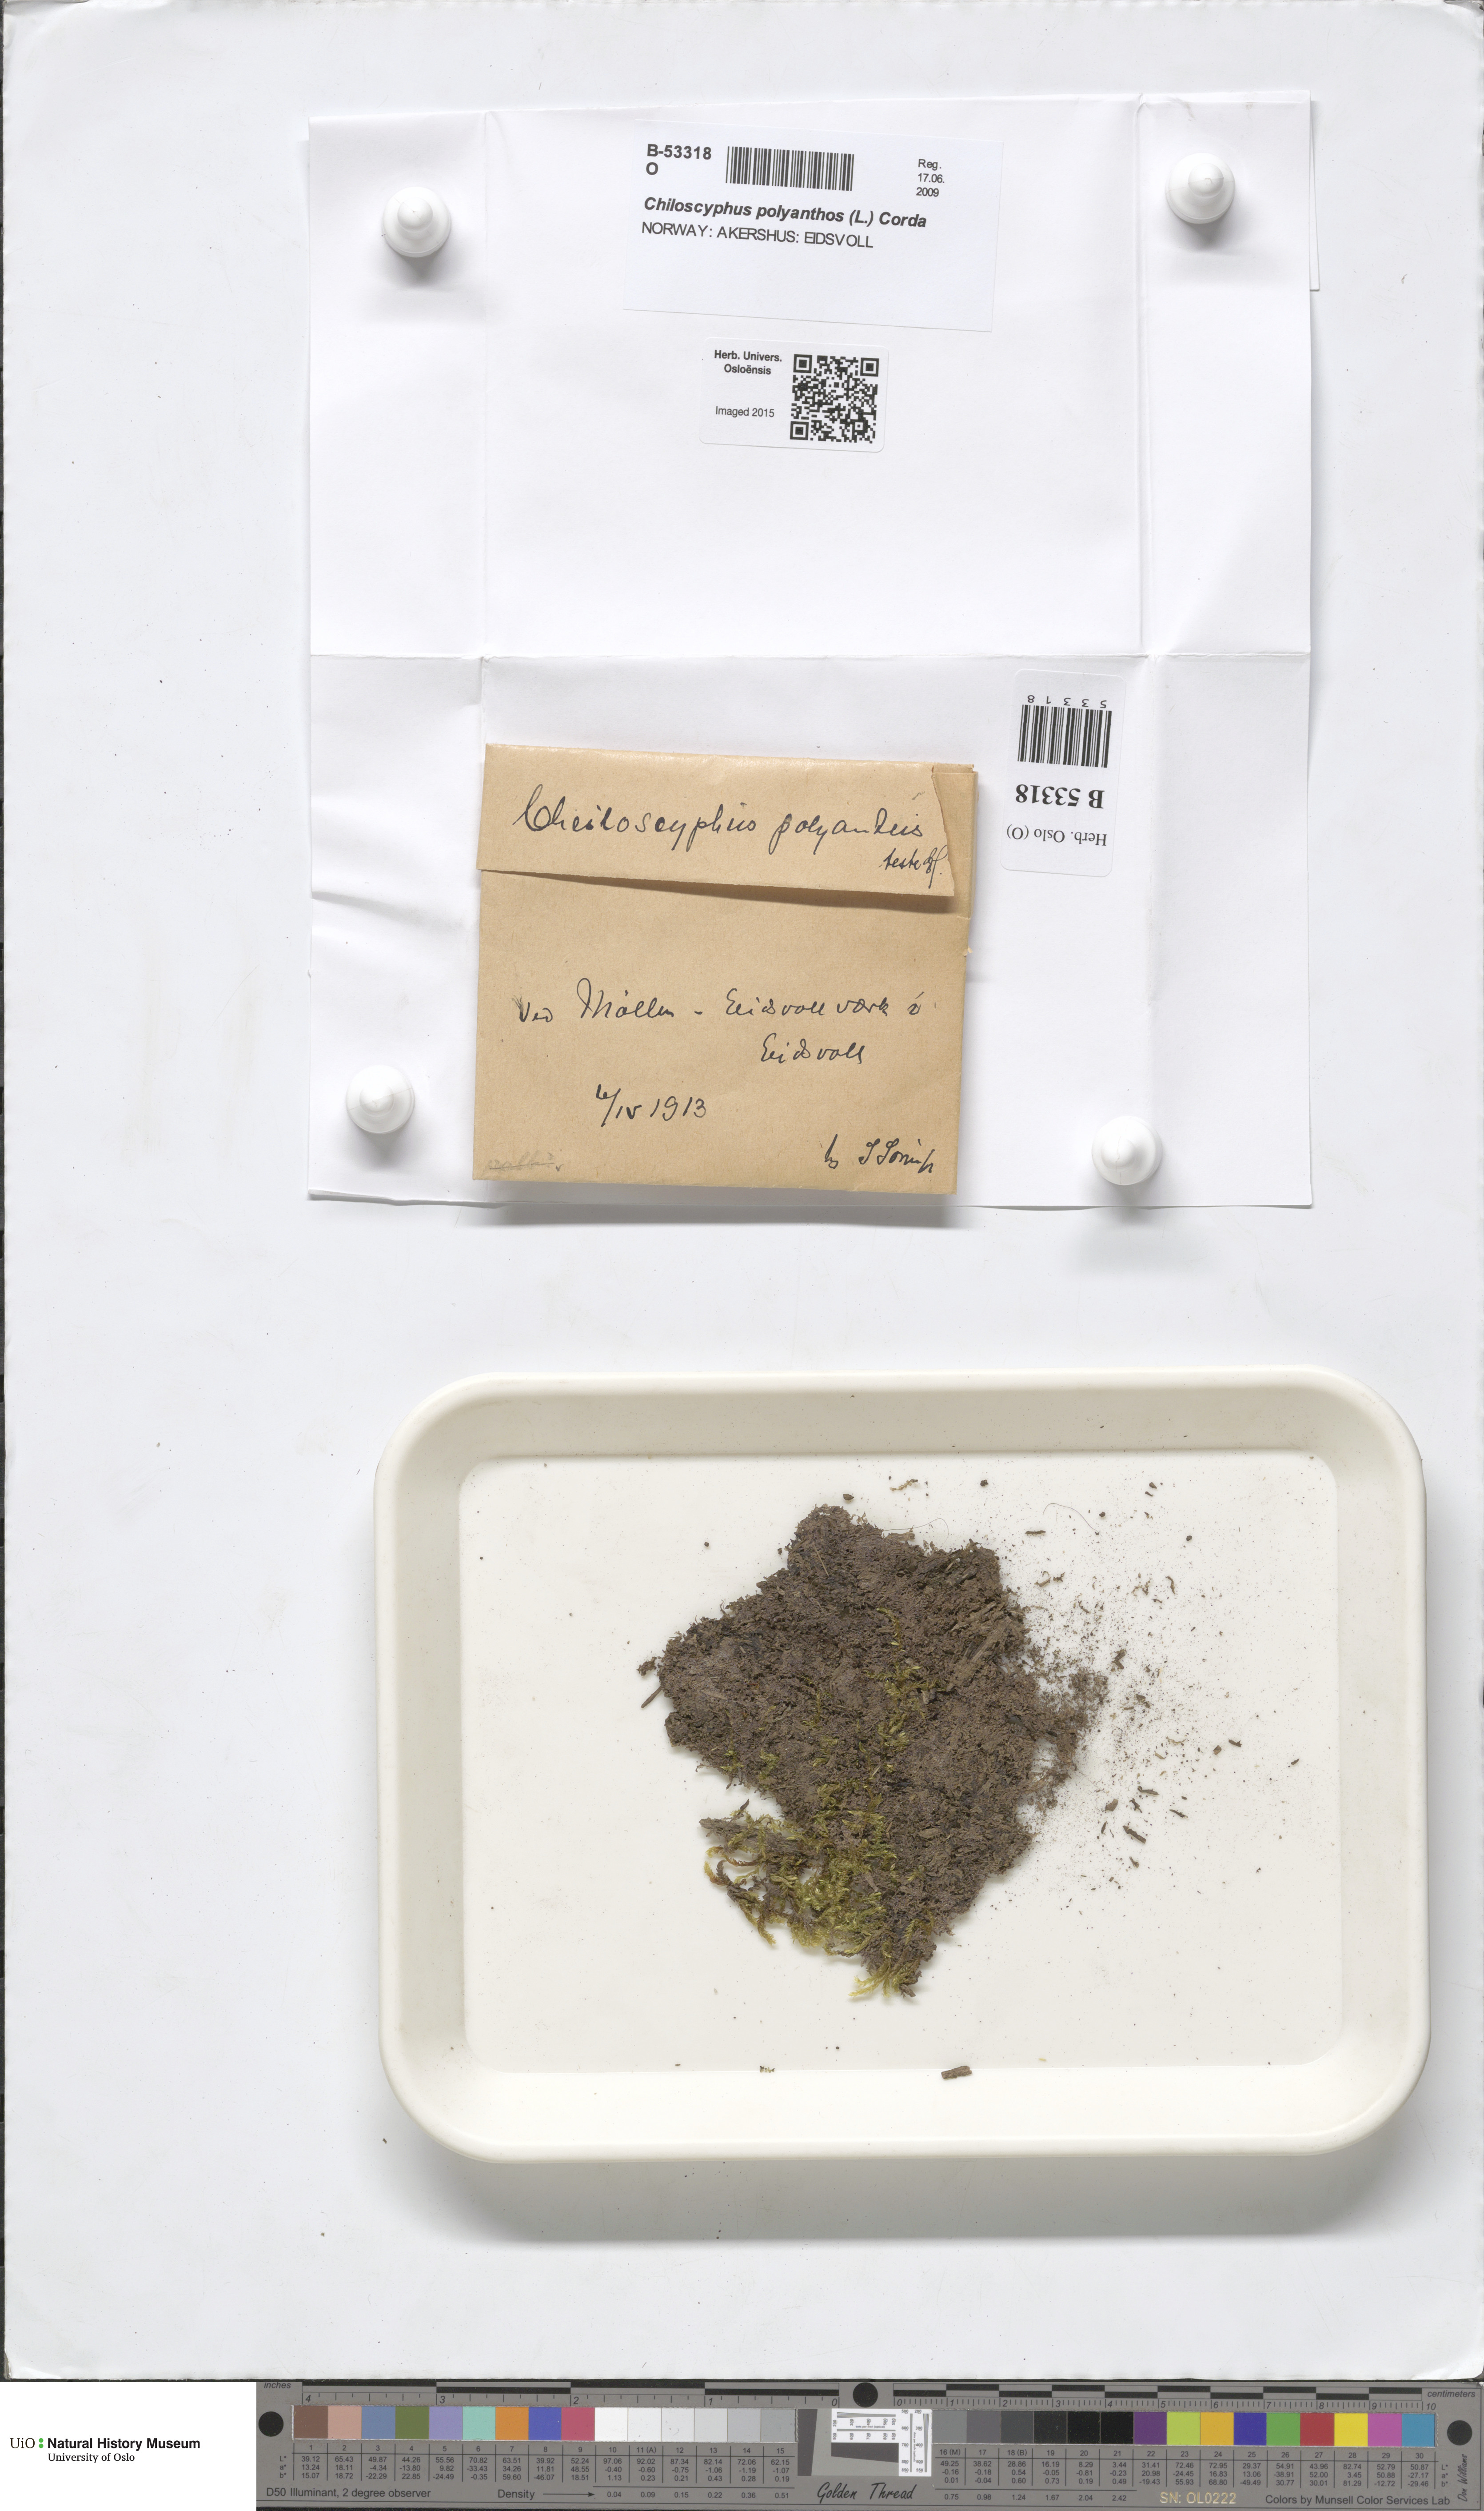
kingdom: Plantae
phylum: Marchantiophyta
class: Jungermanniopsida
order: Jungermanniales
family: Lophocoleaceae
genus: Chiloscyphus
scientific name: Chiloscyphus polyanthos
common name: Square-leaved crestwort
